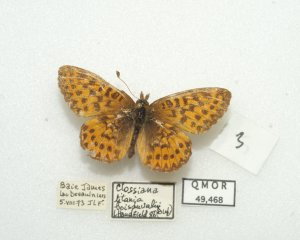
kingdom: Animalia
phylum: Arthropoda
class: Insecta
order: Lepidoptera
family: Nymphalidae
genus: Boloria
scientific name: Boloria chariclea
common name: Arctic Fritillary
